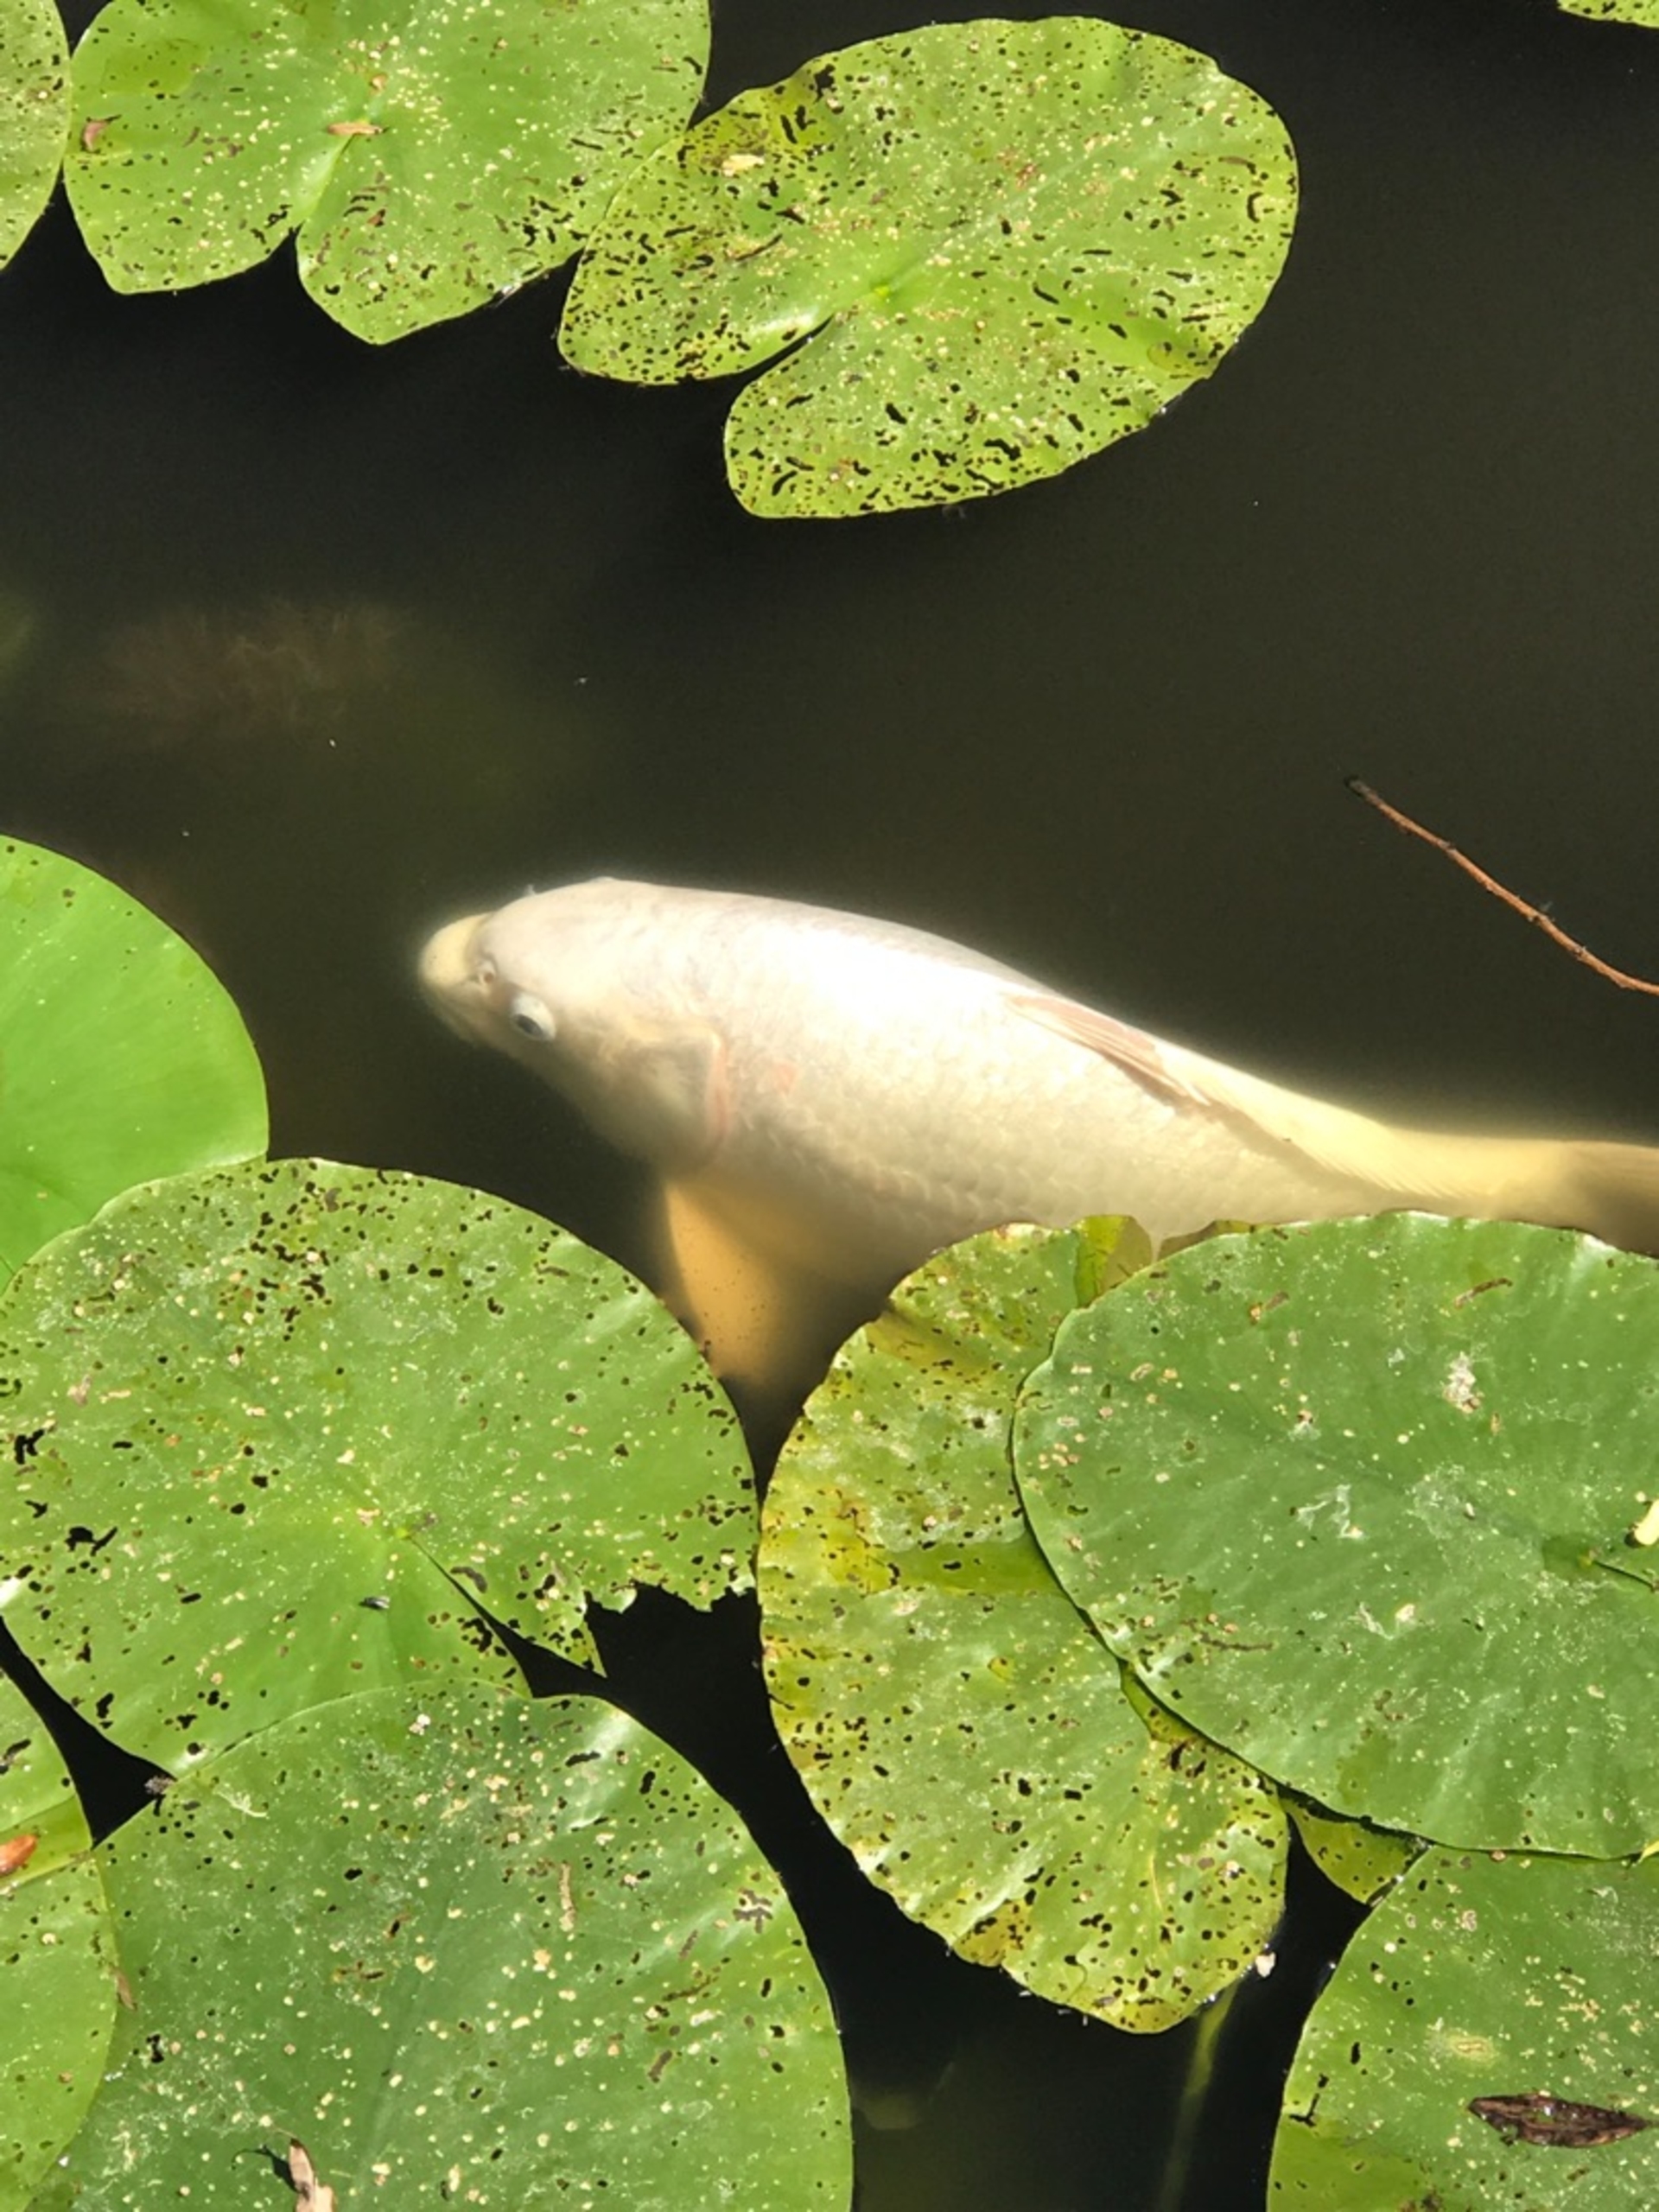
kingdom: Animalia
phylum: Chordata
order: Cypriniformes
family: Cyprinidae
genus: Cyprinus
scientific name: Cyprinus carpio
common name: Karpe
